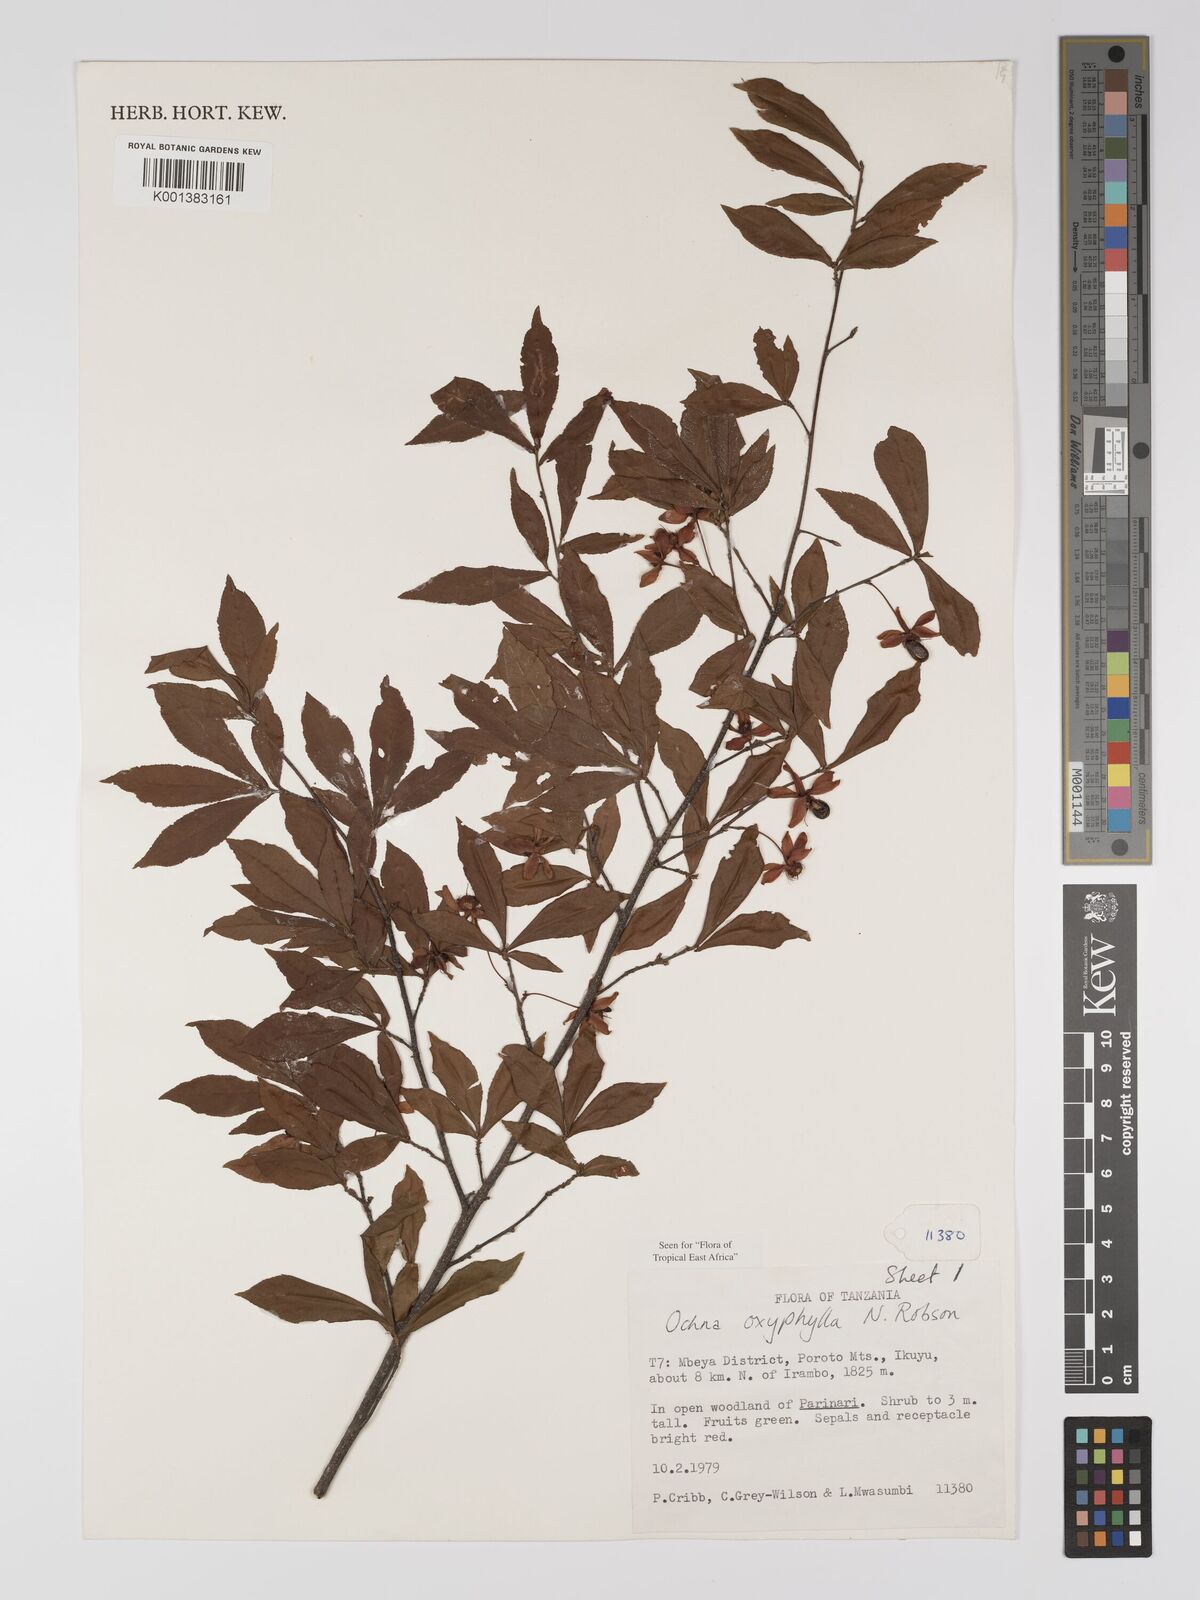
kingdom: Plantae
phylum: Tracheophyta
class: Magnoliopsida
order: Malpighiales
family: Ochnaceae
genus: Ochna
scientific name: Ochna oxyphylla
